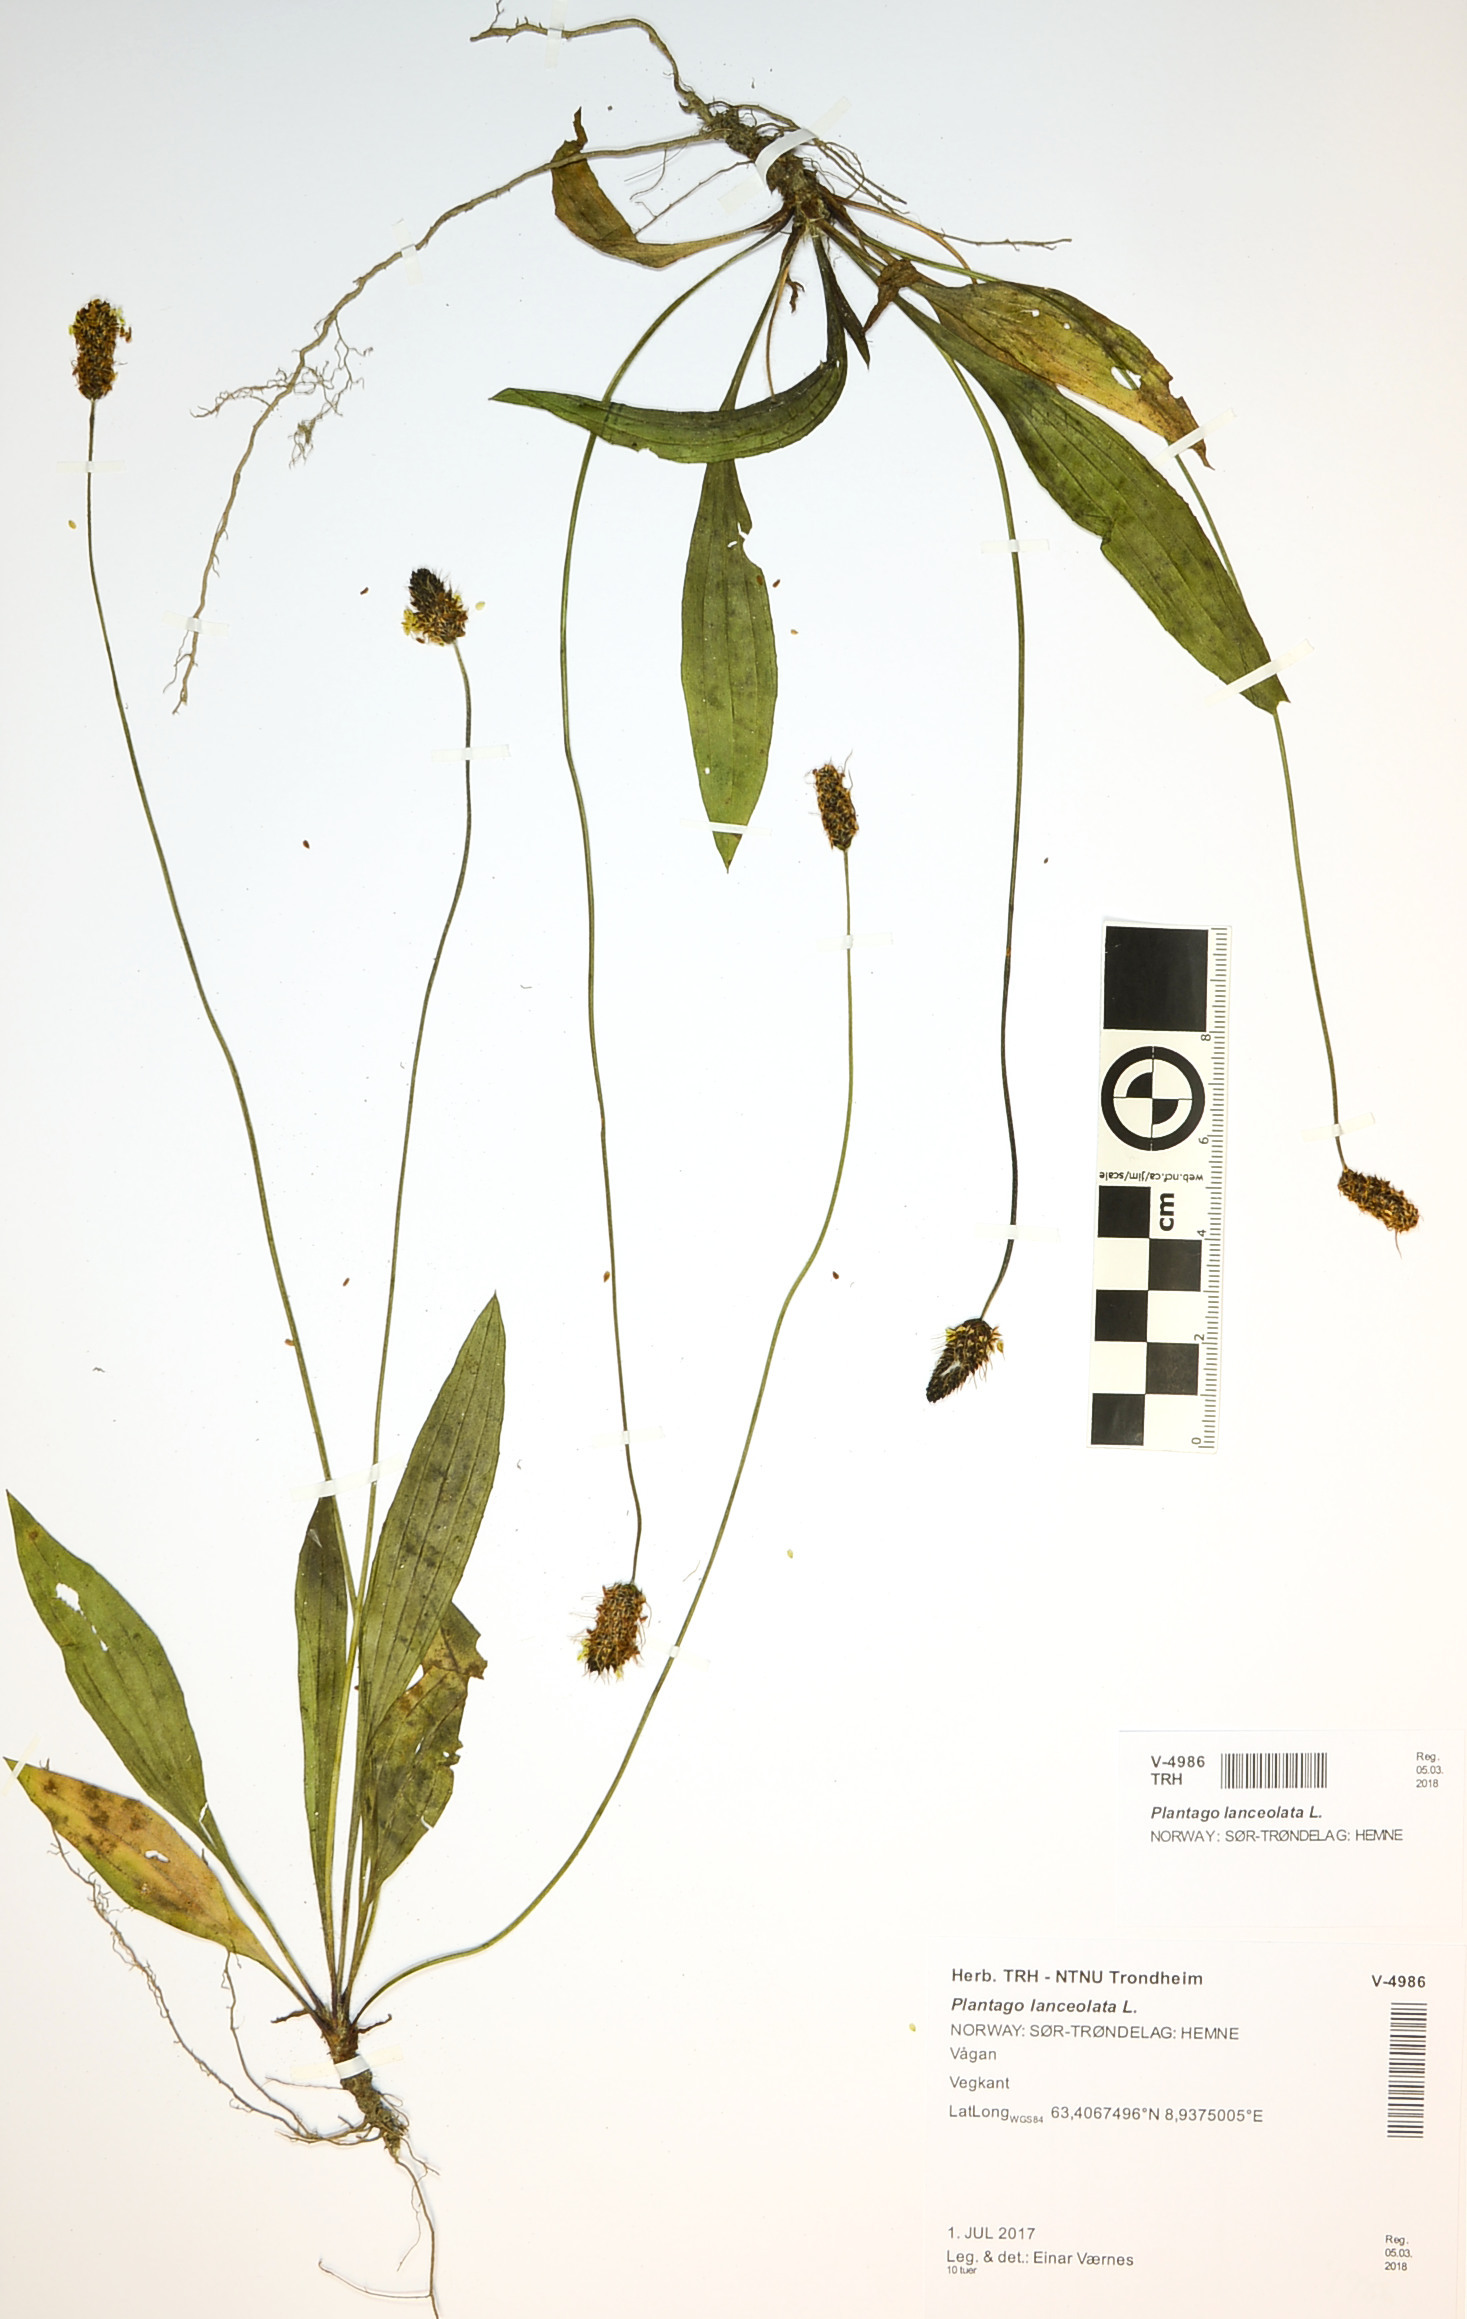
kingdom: Plantae
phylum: Tracheophyta
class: Magnoliopsida
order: Lamiales
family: Plantaginaceae
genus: Plantago
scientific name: Plantago lanceolata
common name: Ribwort plantain
